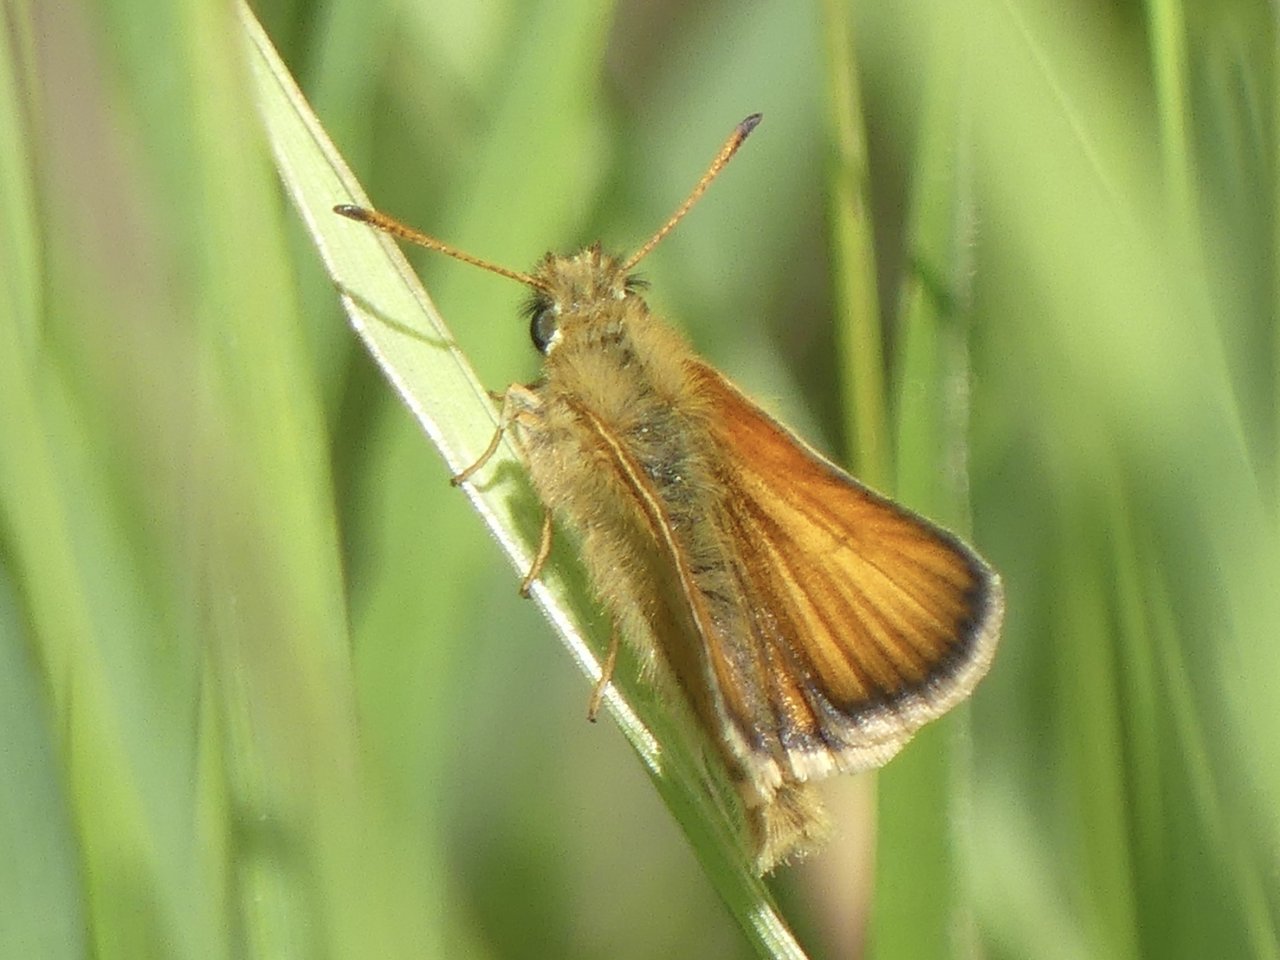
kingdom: Animalia
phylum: Arthropoda
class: Insecta
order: Lepidoptera
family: Hesperiidae
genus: Thymelicus
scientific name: Thymelicus lineola
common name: European Skipper
